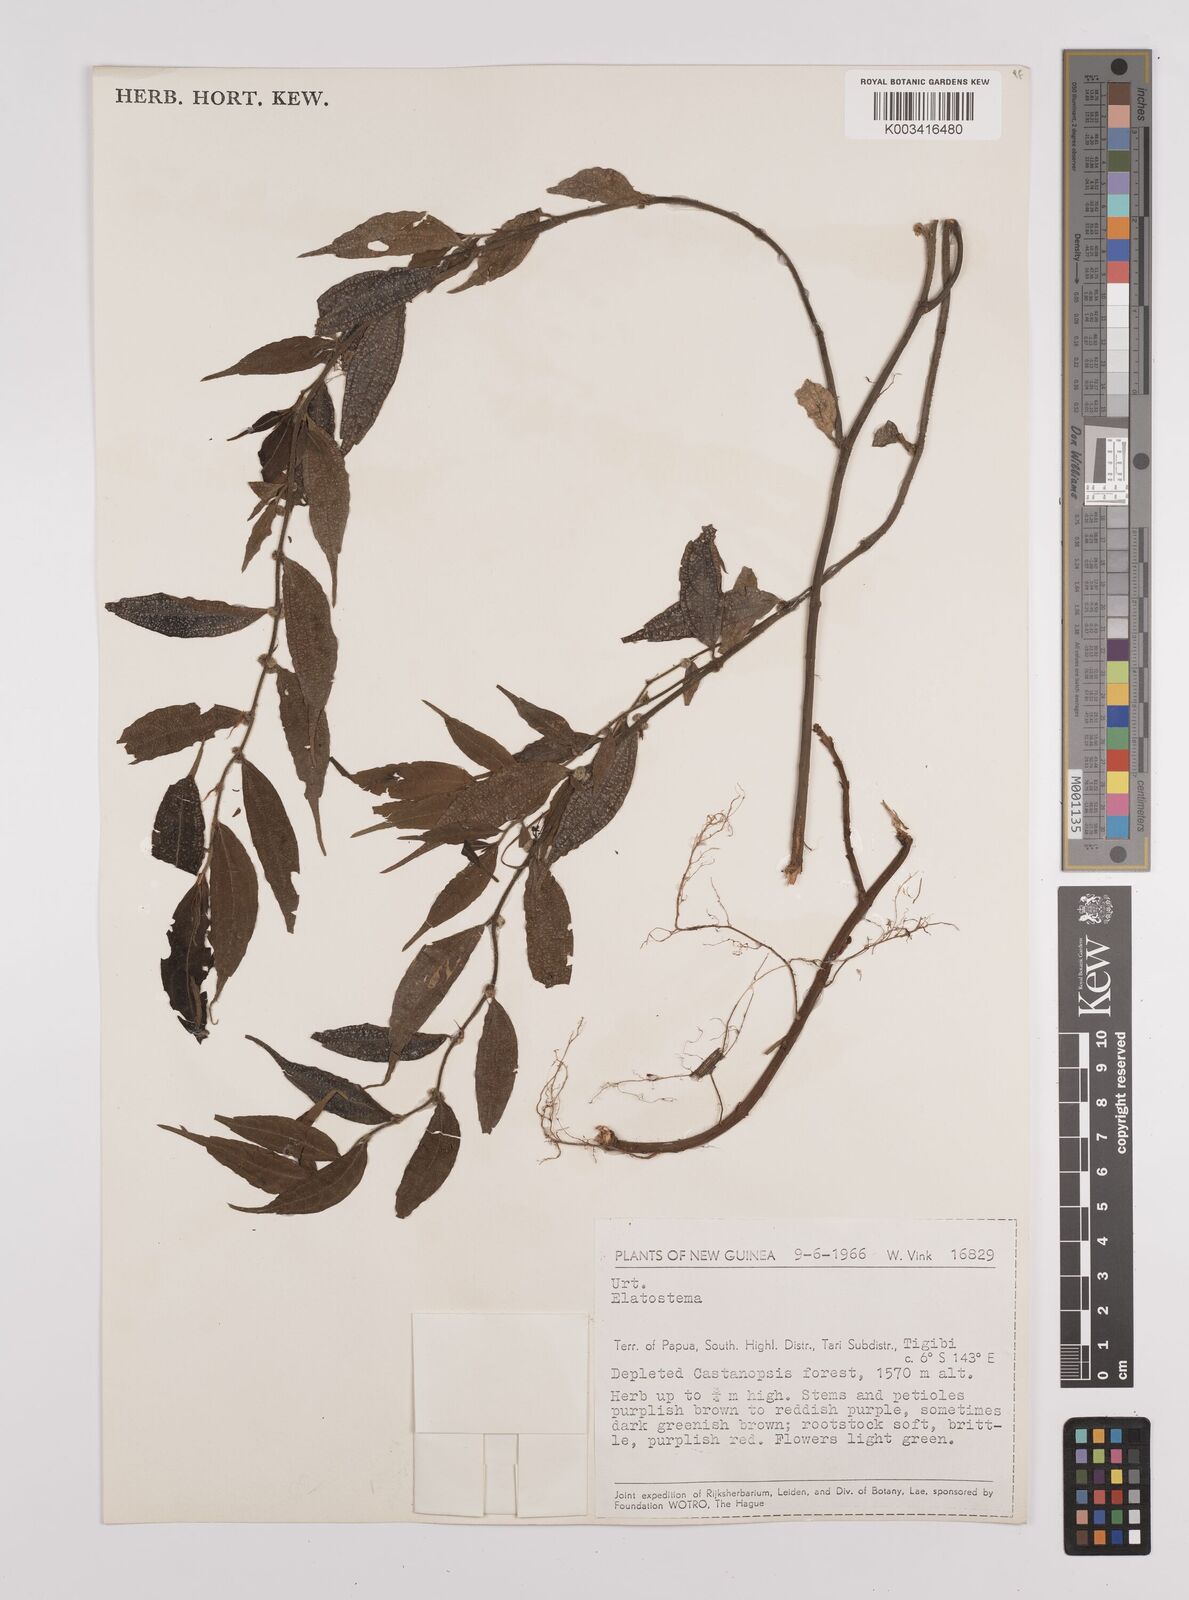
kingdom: Plantae
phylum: Tracheophyta
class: Magnoliopsida
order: Rosales
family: Urticaceae
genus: Elatostema
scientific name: Elatostema
